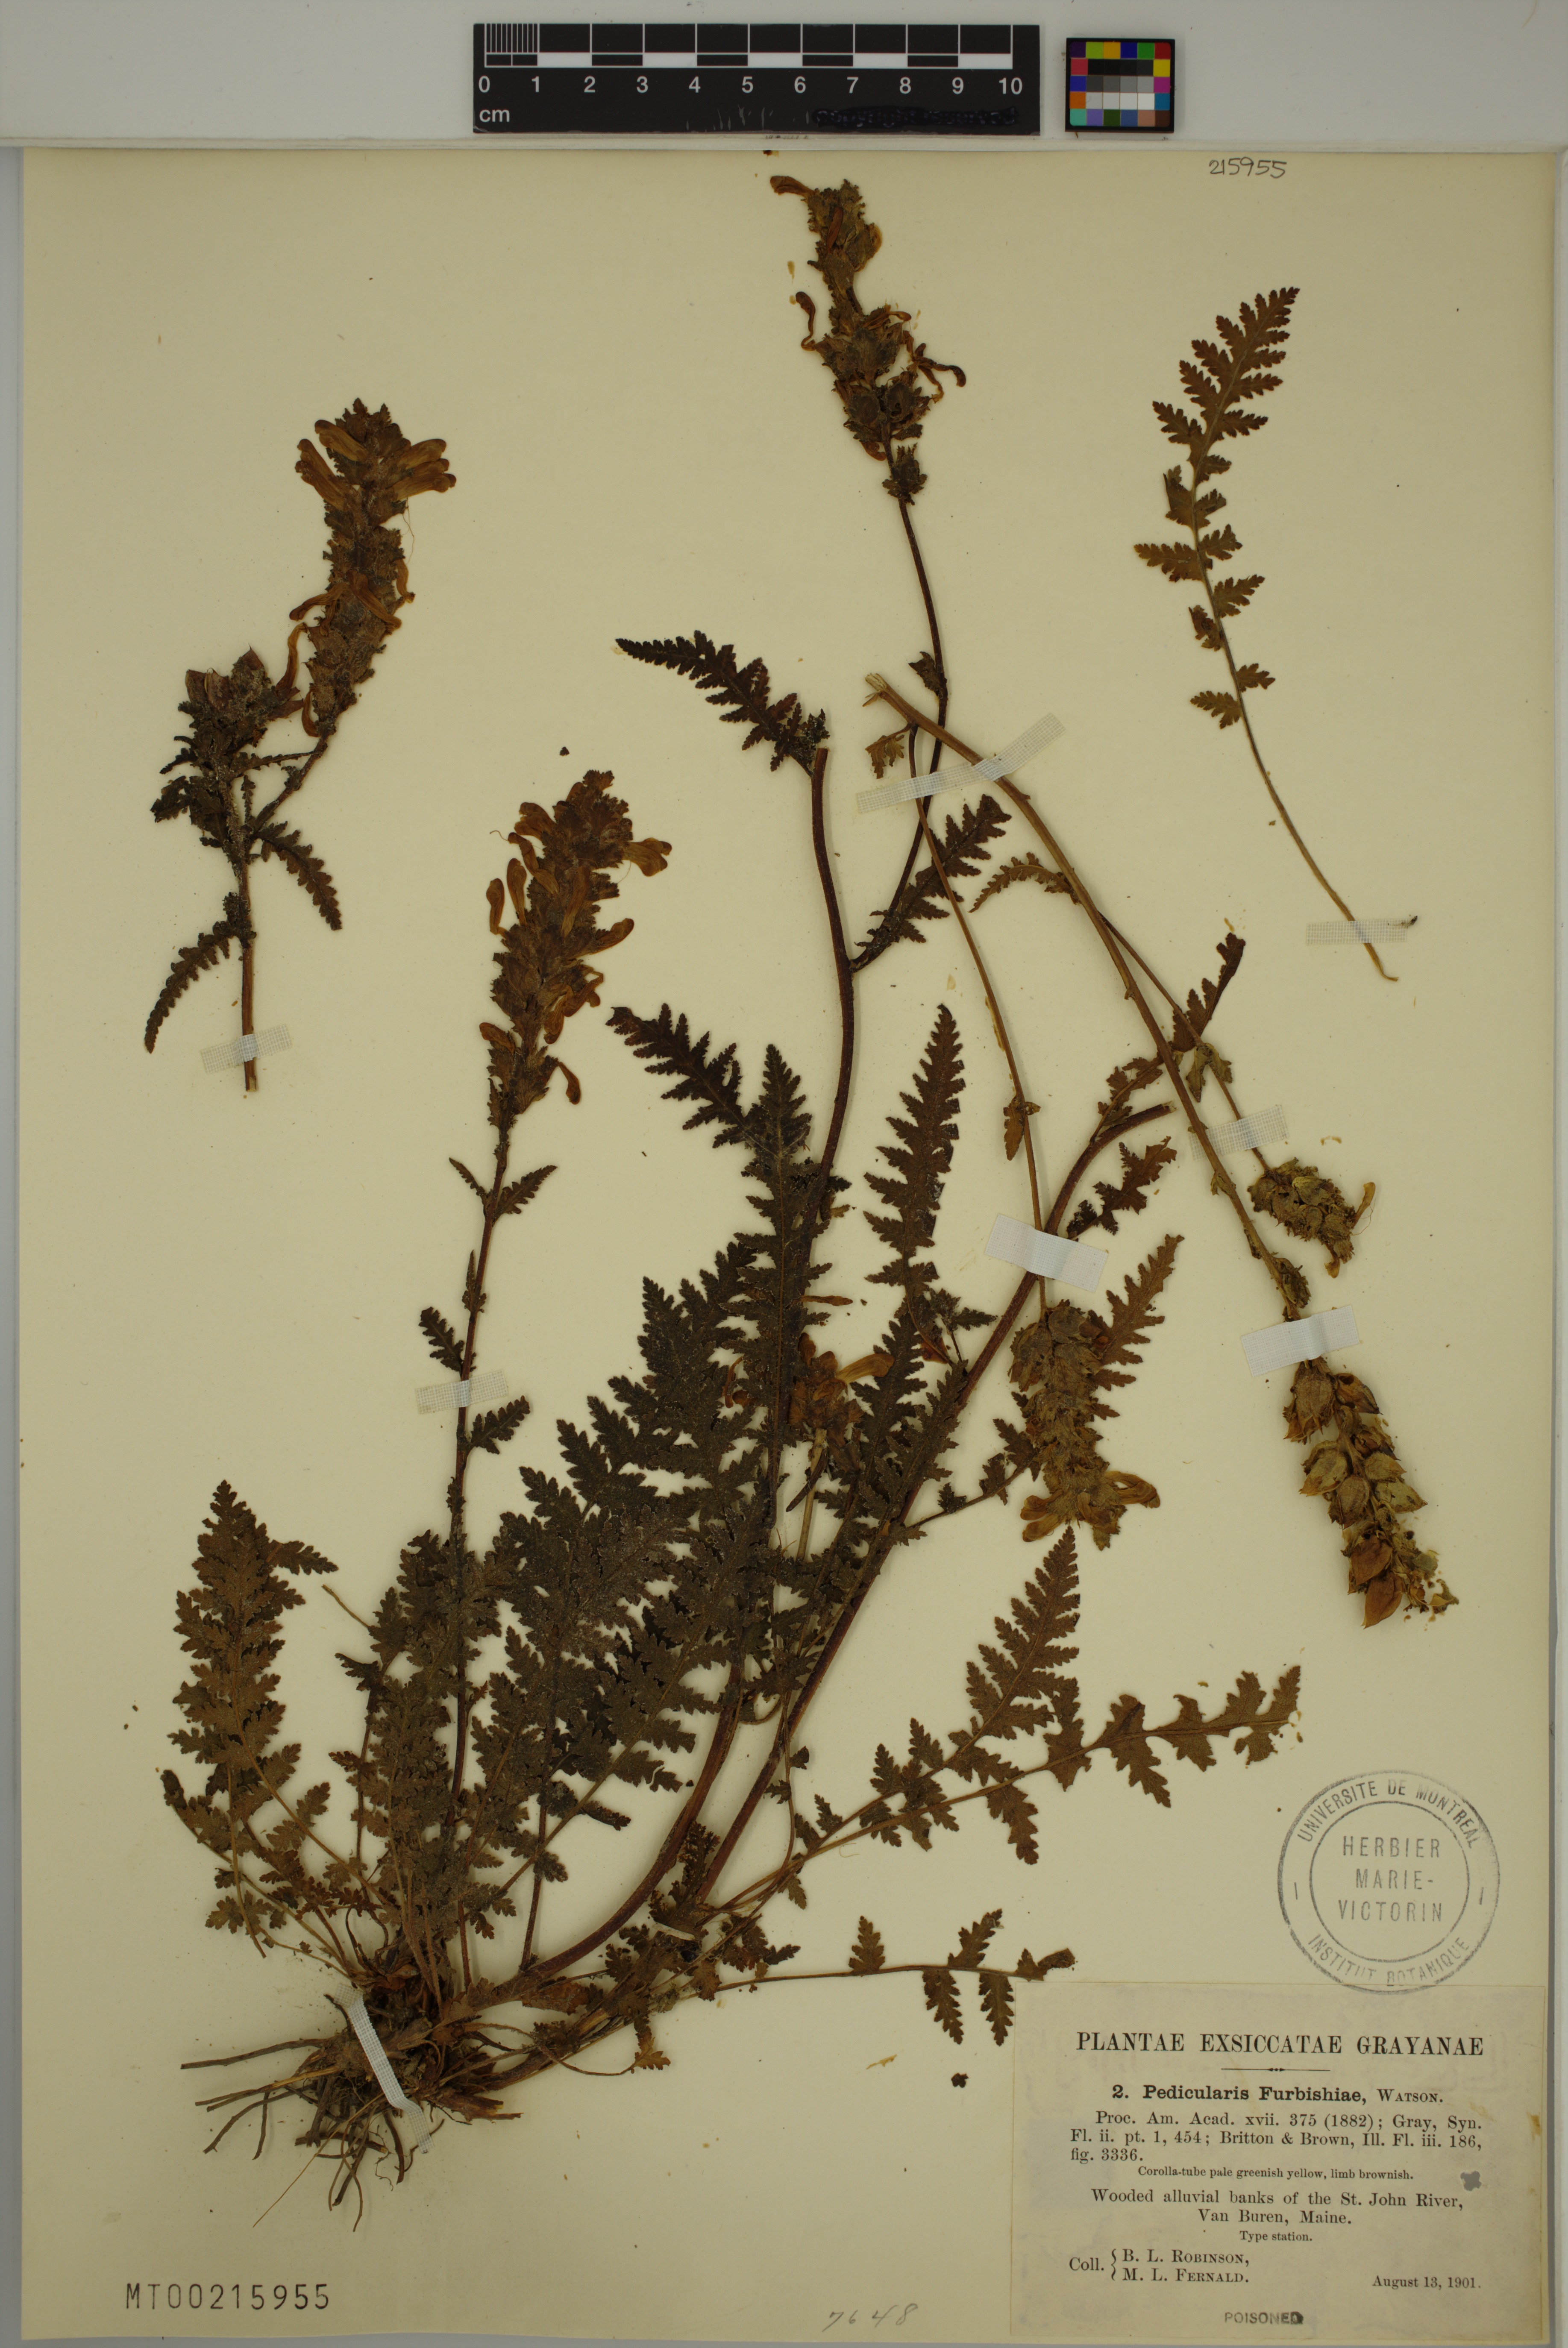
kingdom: Plantae
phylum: Tracheophyta
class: Magnoliopsida
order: Lamiales
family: Orobanchaceae
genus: Pedicularis
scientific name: Pedicularis furbishiae
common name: Furbish's lousewort
